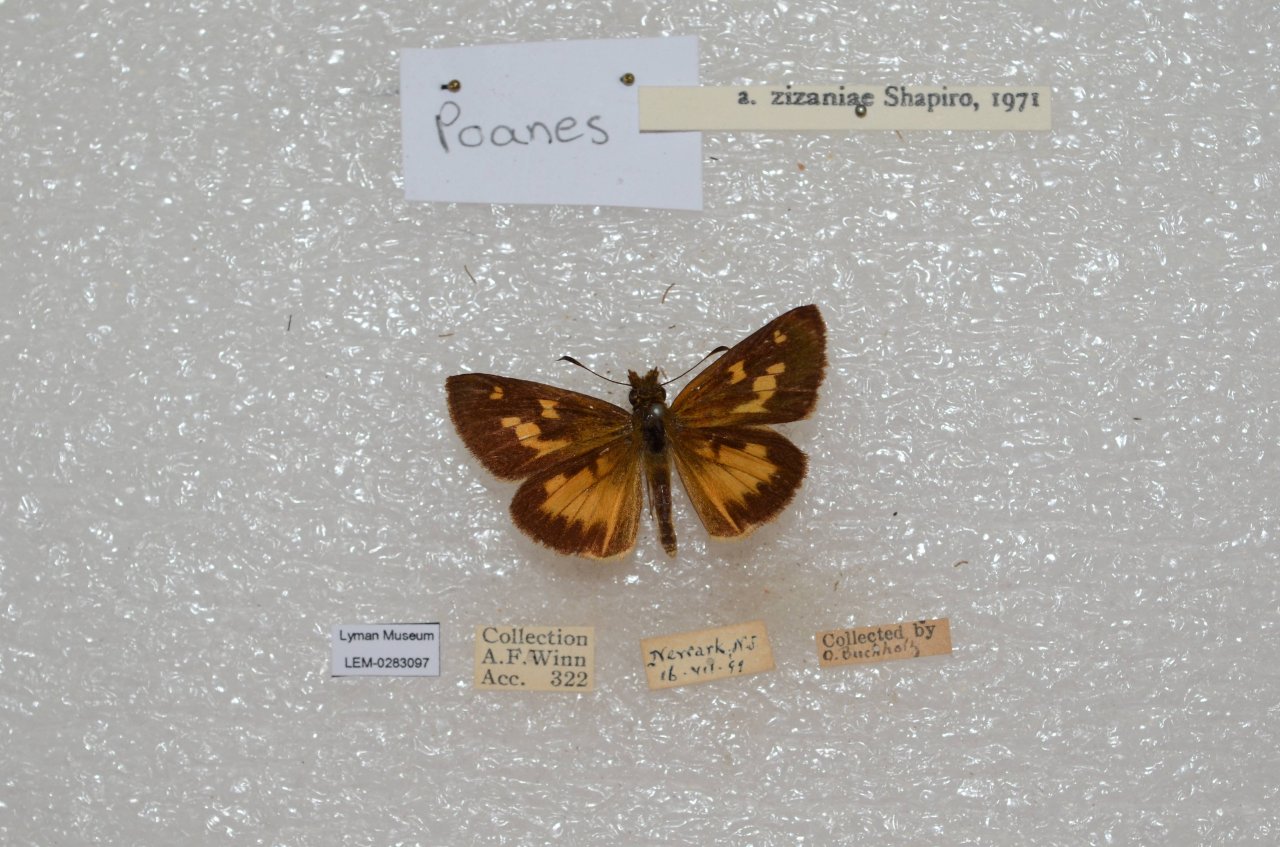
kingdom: Animalia
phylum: Arthropoda
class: Insecta
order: Lepidoptera
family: Hesperiidae
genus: Poanes
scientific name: Poanes viator
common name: Broad-winged Skipper
